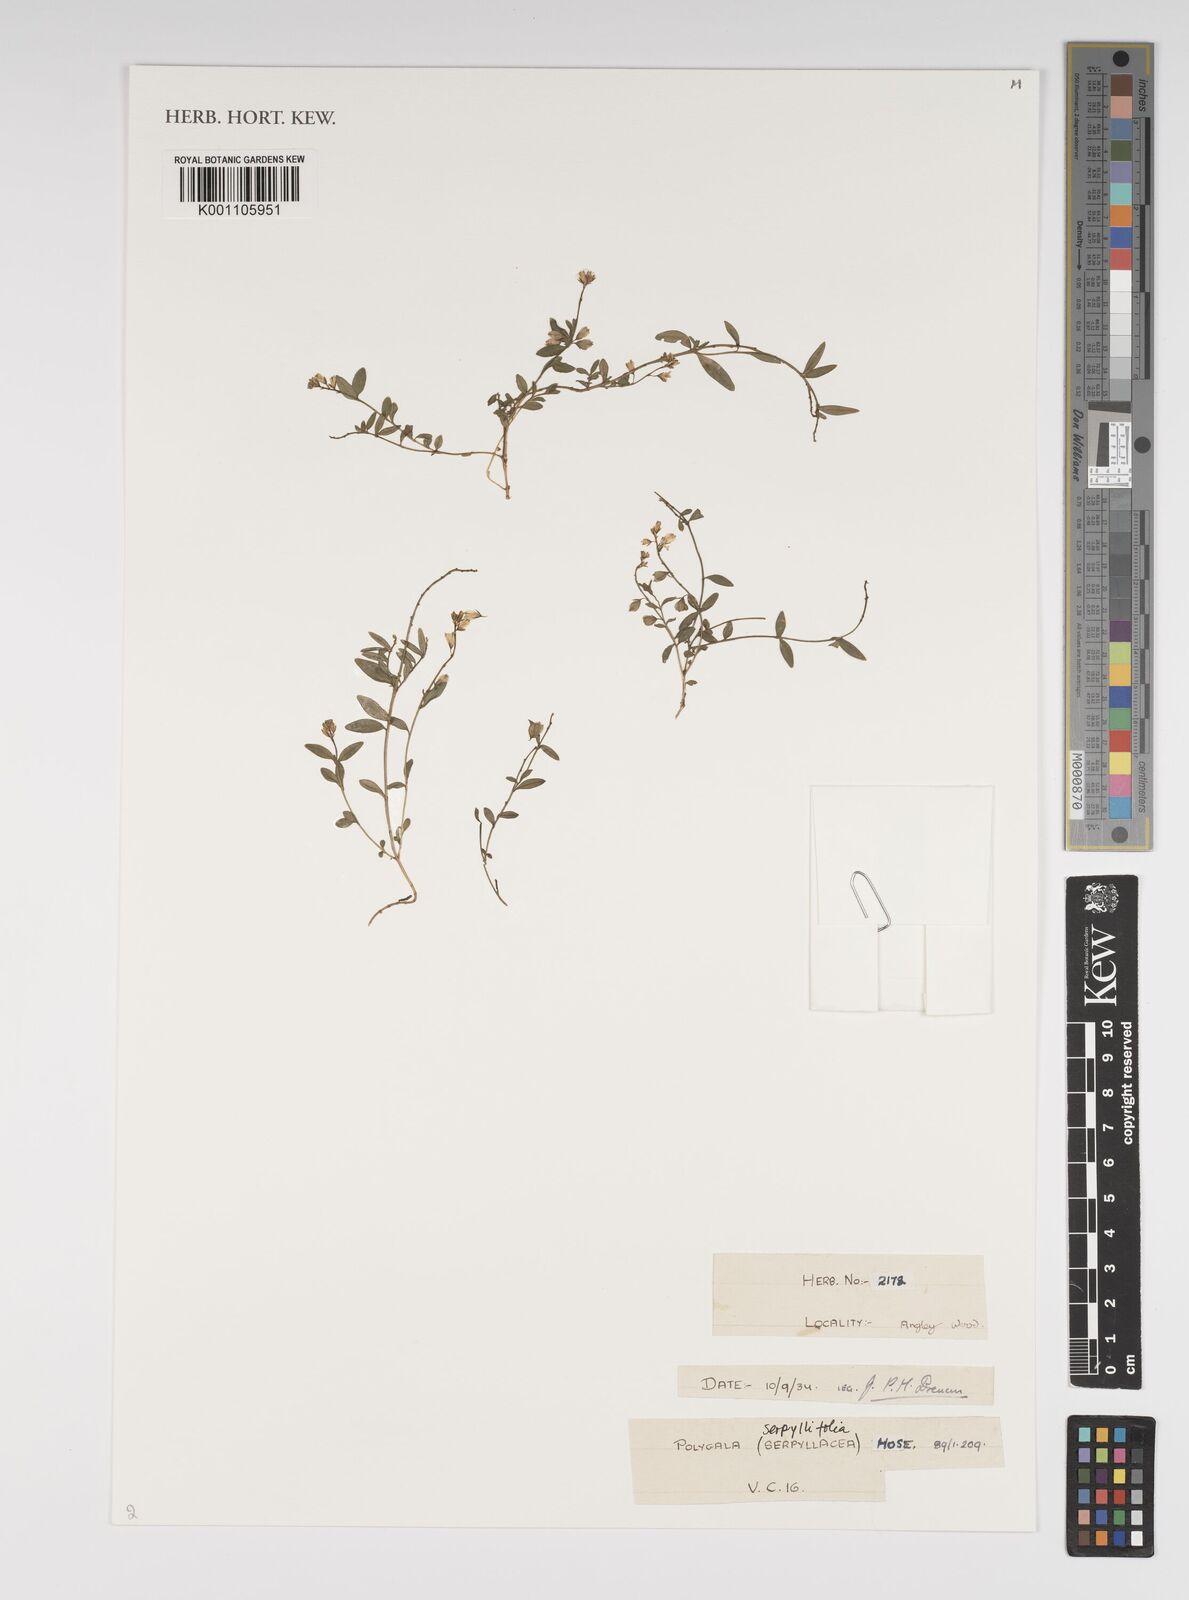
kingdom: Plantae
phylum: Tracheophyta
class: Magnoliopsida
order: Fabales
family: Polygalaceae
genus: Polygala
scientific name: Polygala serpyllifolia
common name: Heath milkwort
